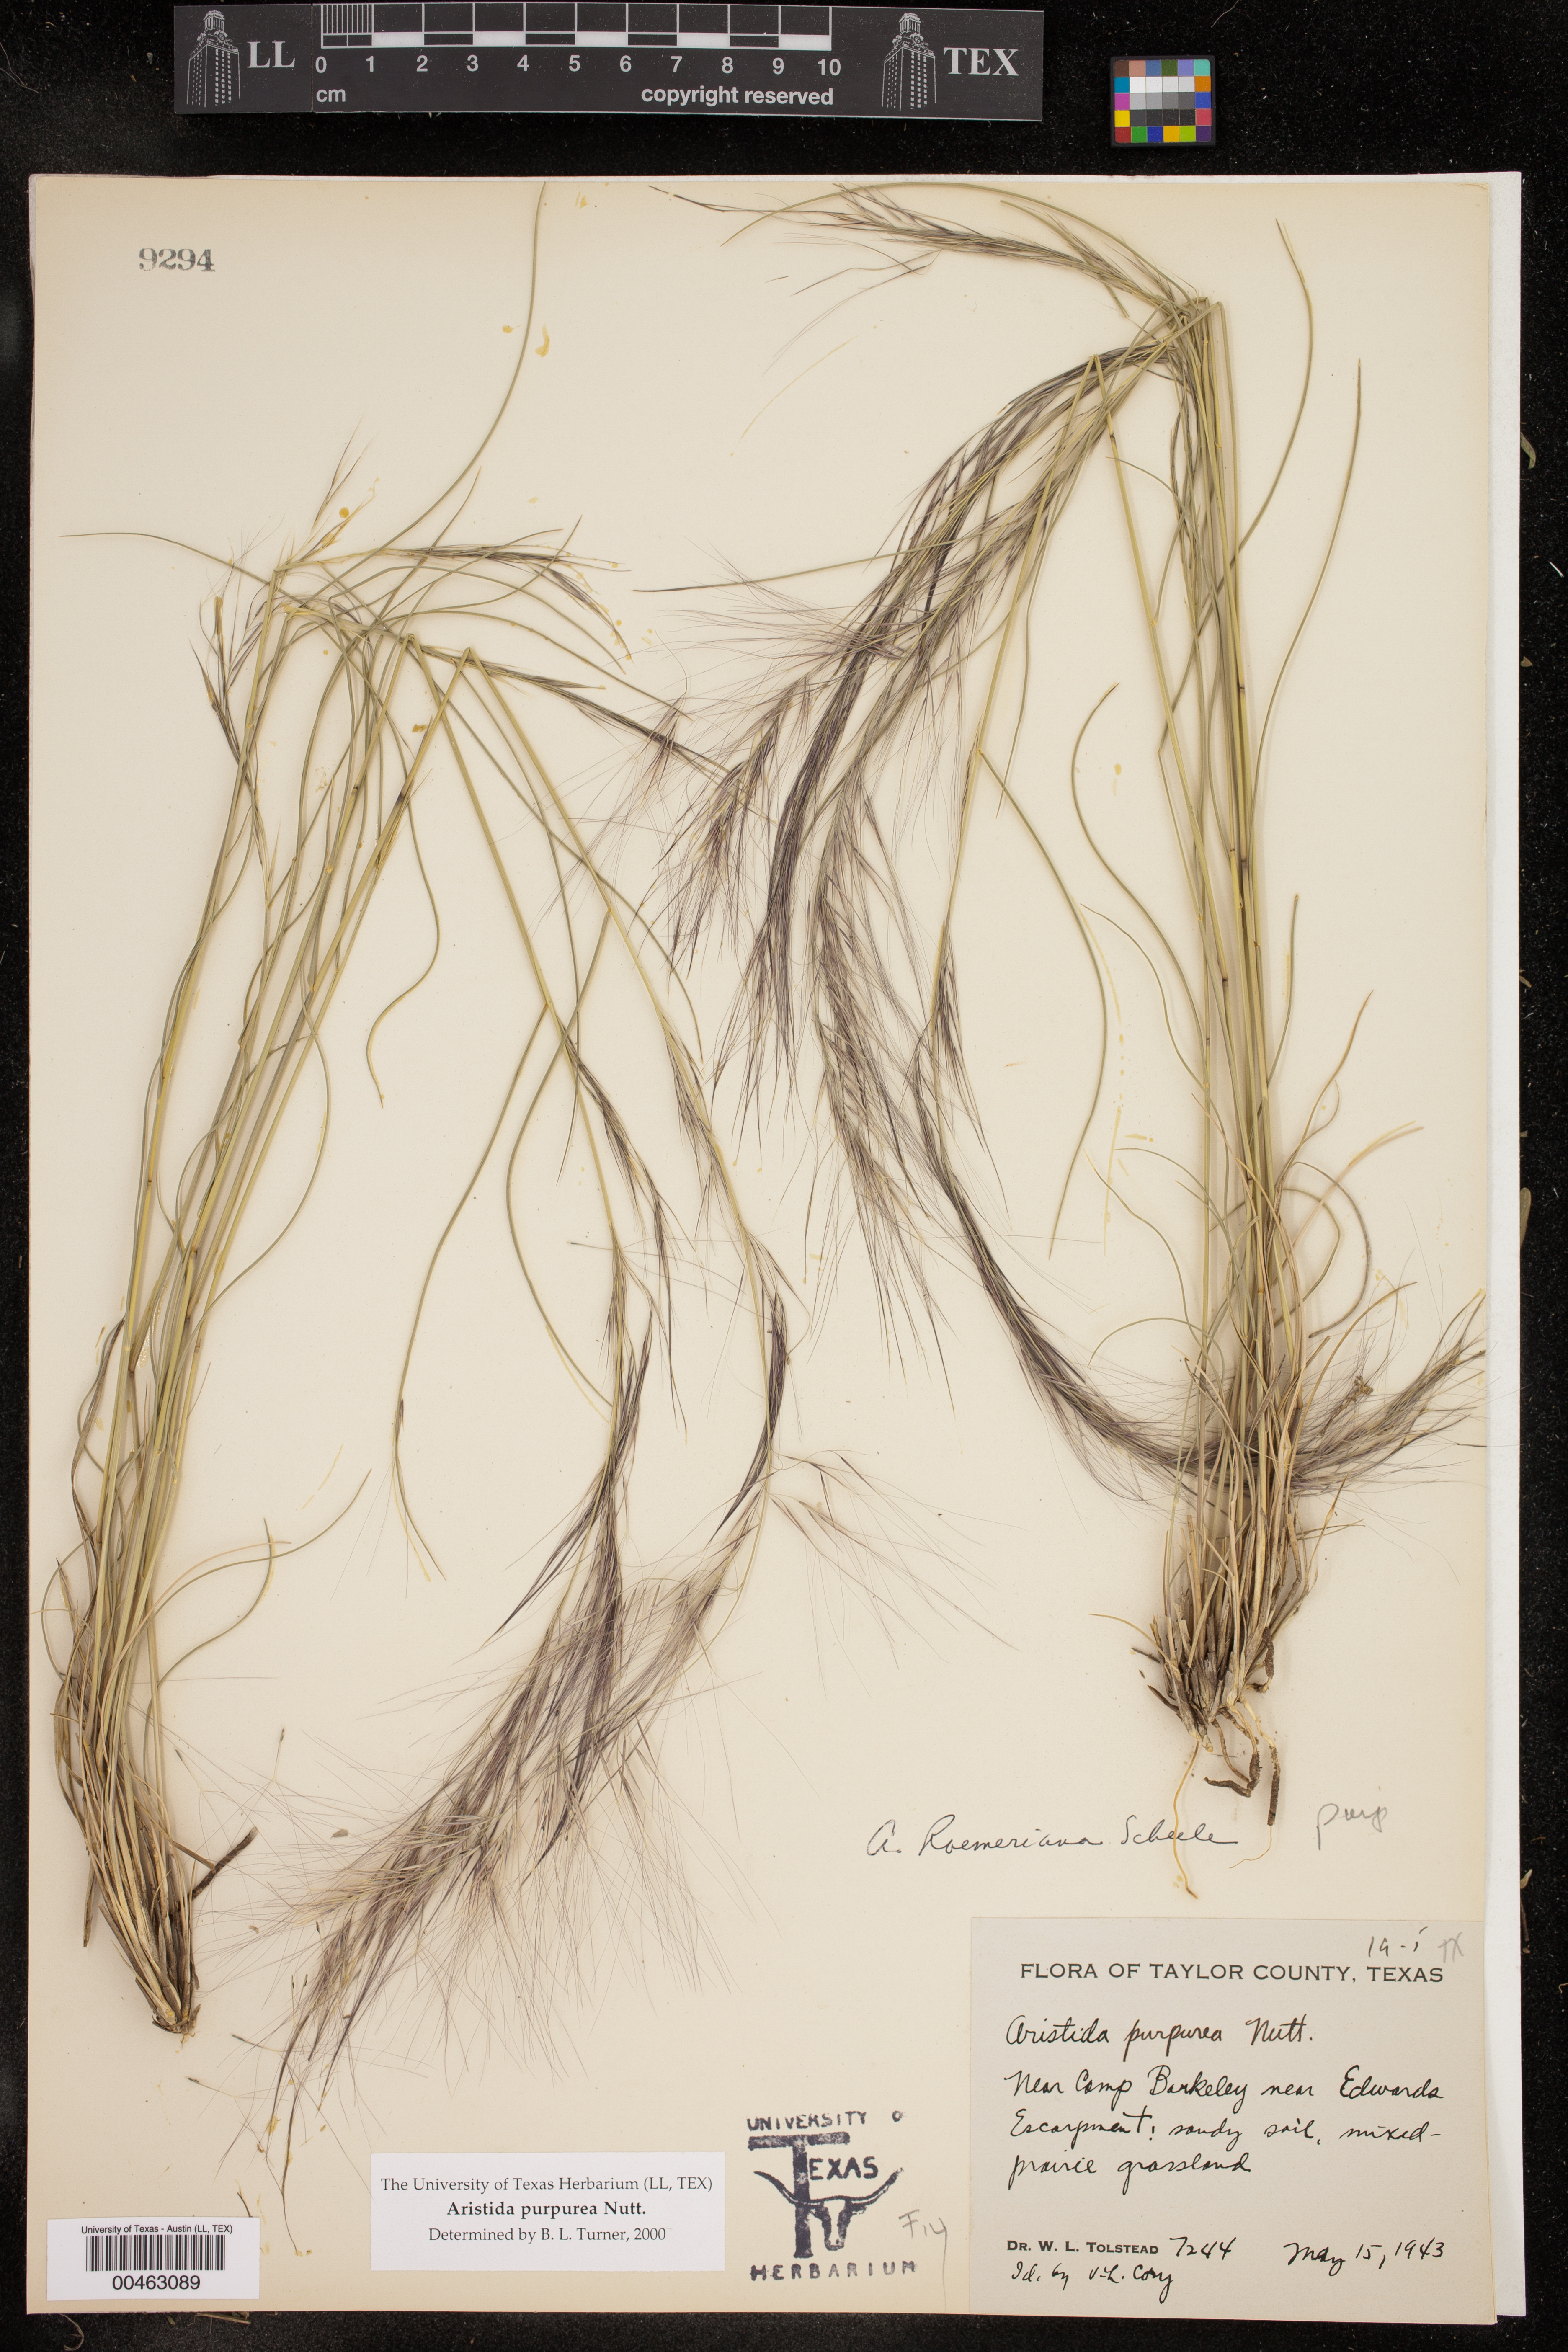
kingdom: Plantae
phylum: Tracheophyta
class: Liliopsida
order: Poales
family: Poaceae
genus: Aristida
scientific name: Aristida purpurea
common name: Purple threeawn
